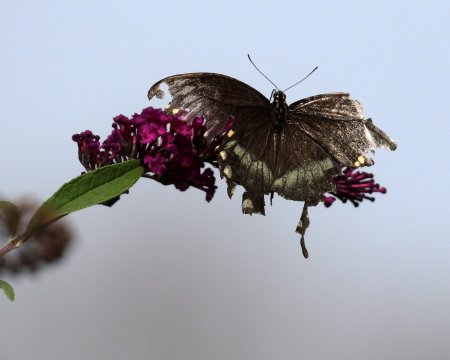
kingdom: Animalia
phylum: Arthropoda
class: Insecta
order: Lepidoptera
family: Papilionidae
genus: Pterourus
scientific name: Pterourus troilus
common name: Spicebush Swallowtail
